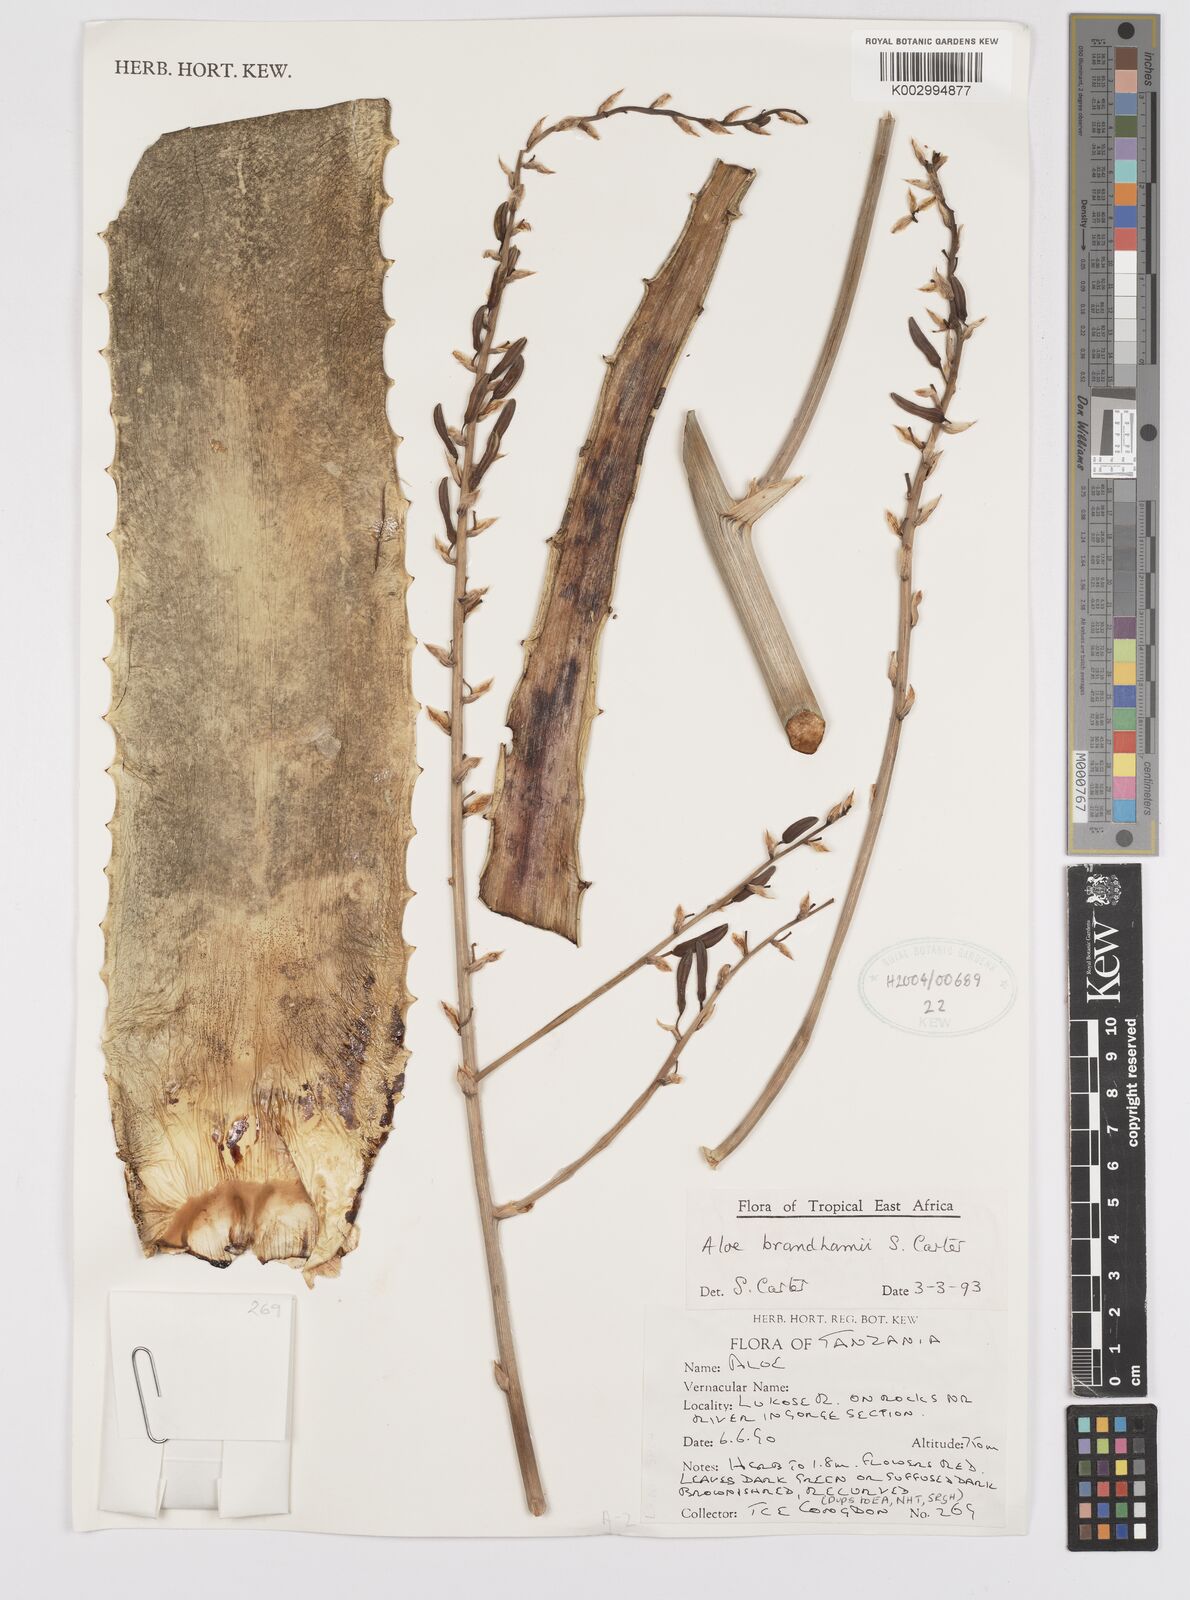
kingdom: Plantae
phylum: Tracheophyta
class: Liliopsida
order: Asparagales
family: Asphodelaceae
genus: Aloe
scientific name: Aloe brandhamii
